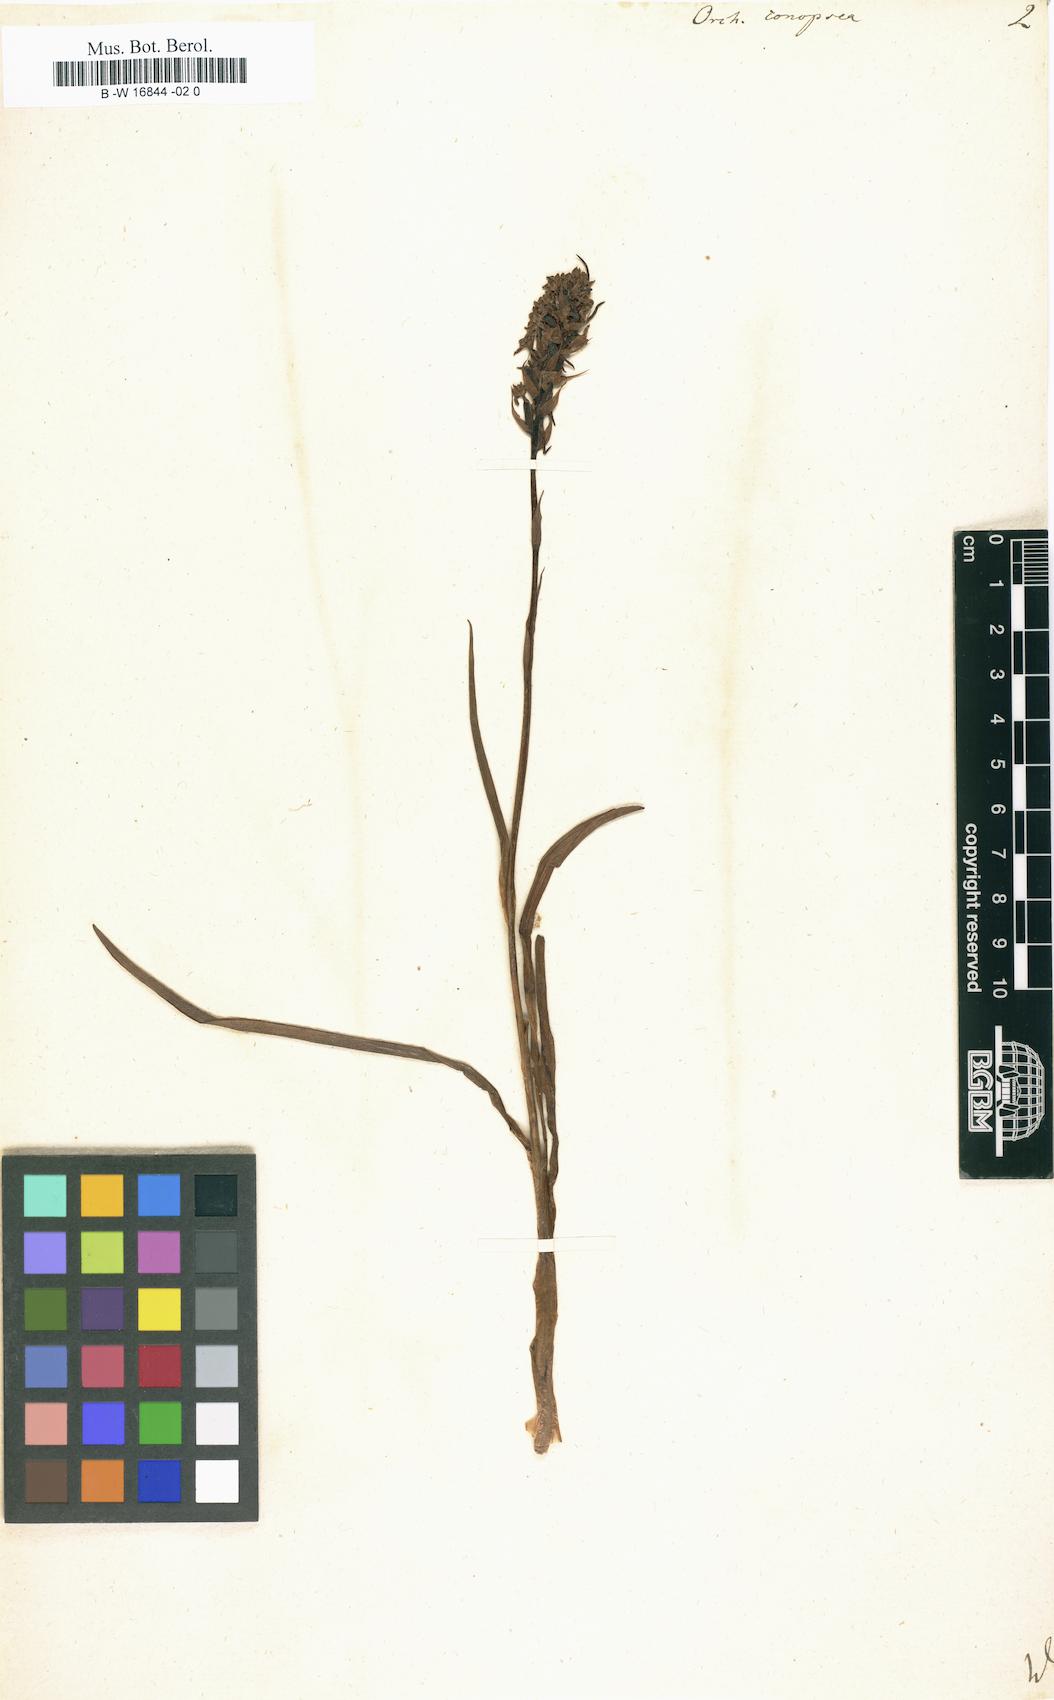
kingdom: Plantae
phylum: Tracheophyta
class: Liliopsida
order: Asparagales
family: Orchidaceae
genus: Gymnadenia
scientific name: Gymnadenia conopsea
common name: Fragrant orchid
